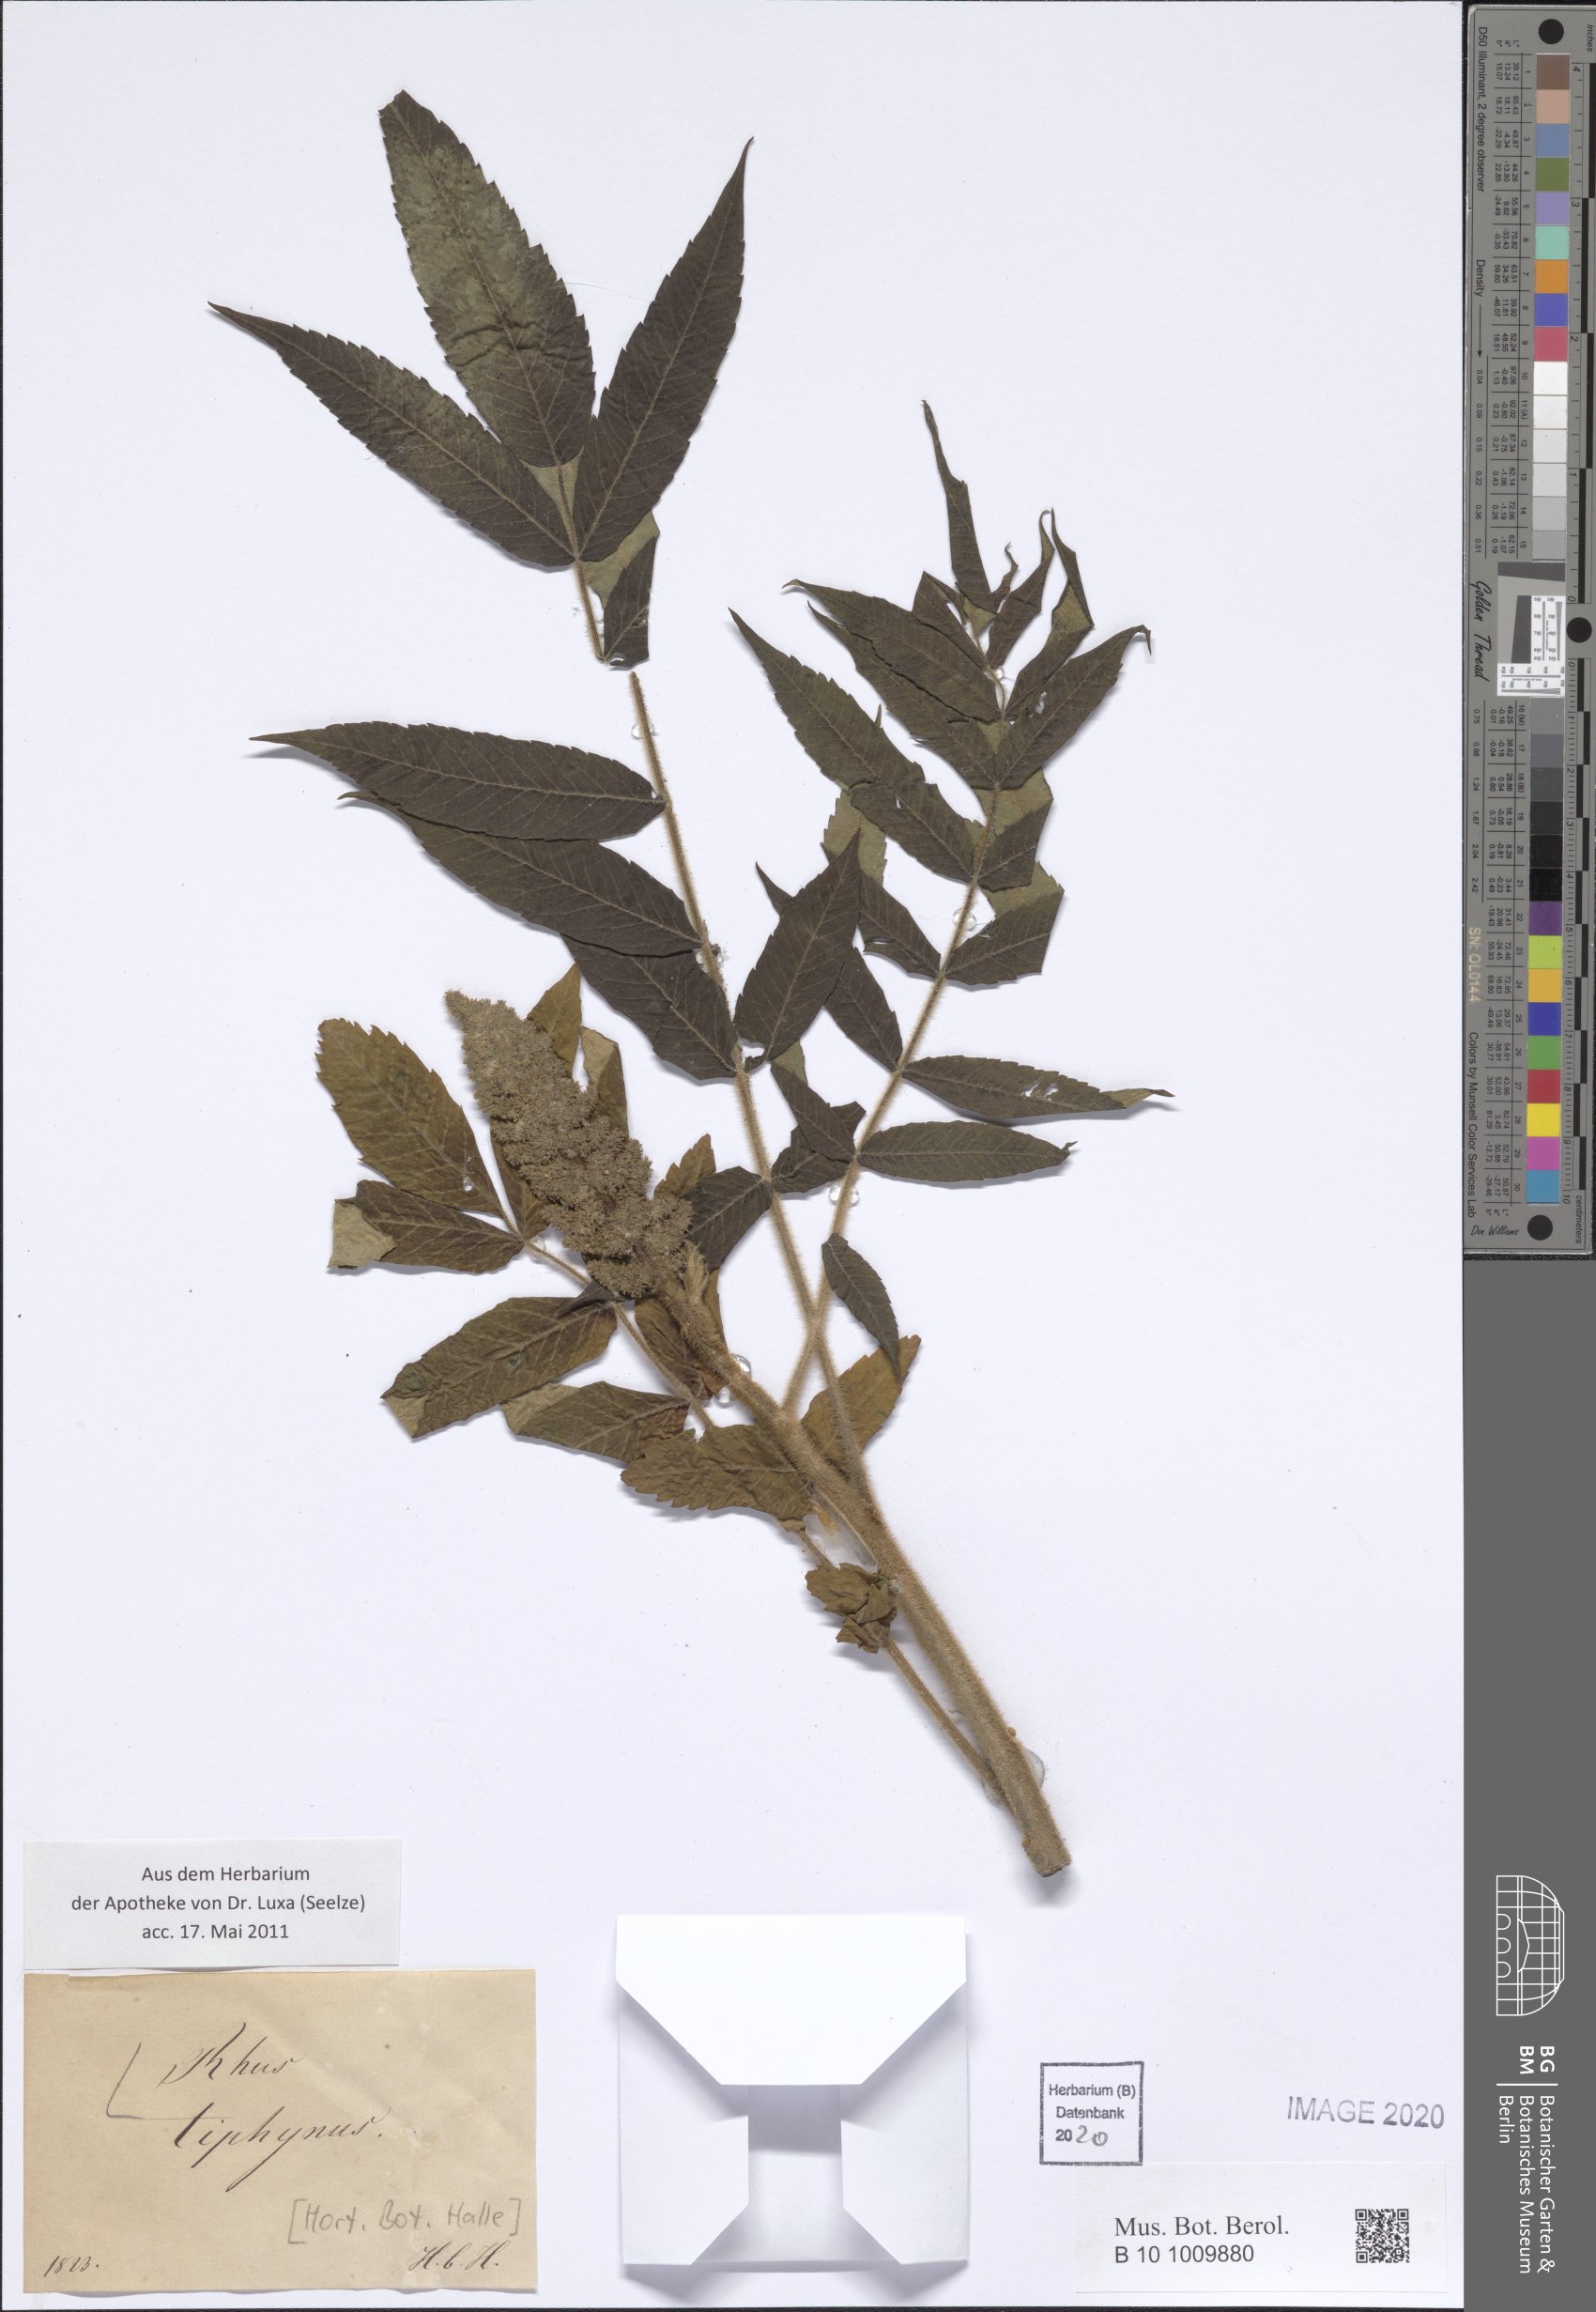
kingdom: Plantae
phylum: Tracheophyta
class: Magnoliopsida
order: Sapindales
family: Anacardiaceae
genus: Rhus
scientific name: Rhus typhina
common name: Staghorn sumac
